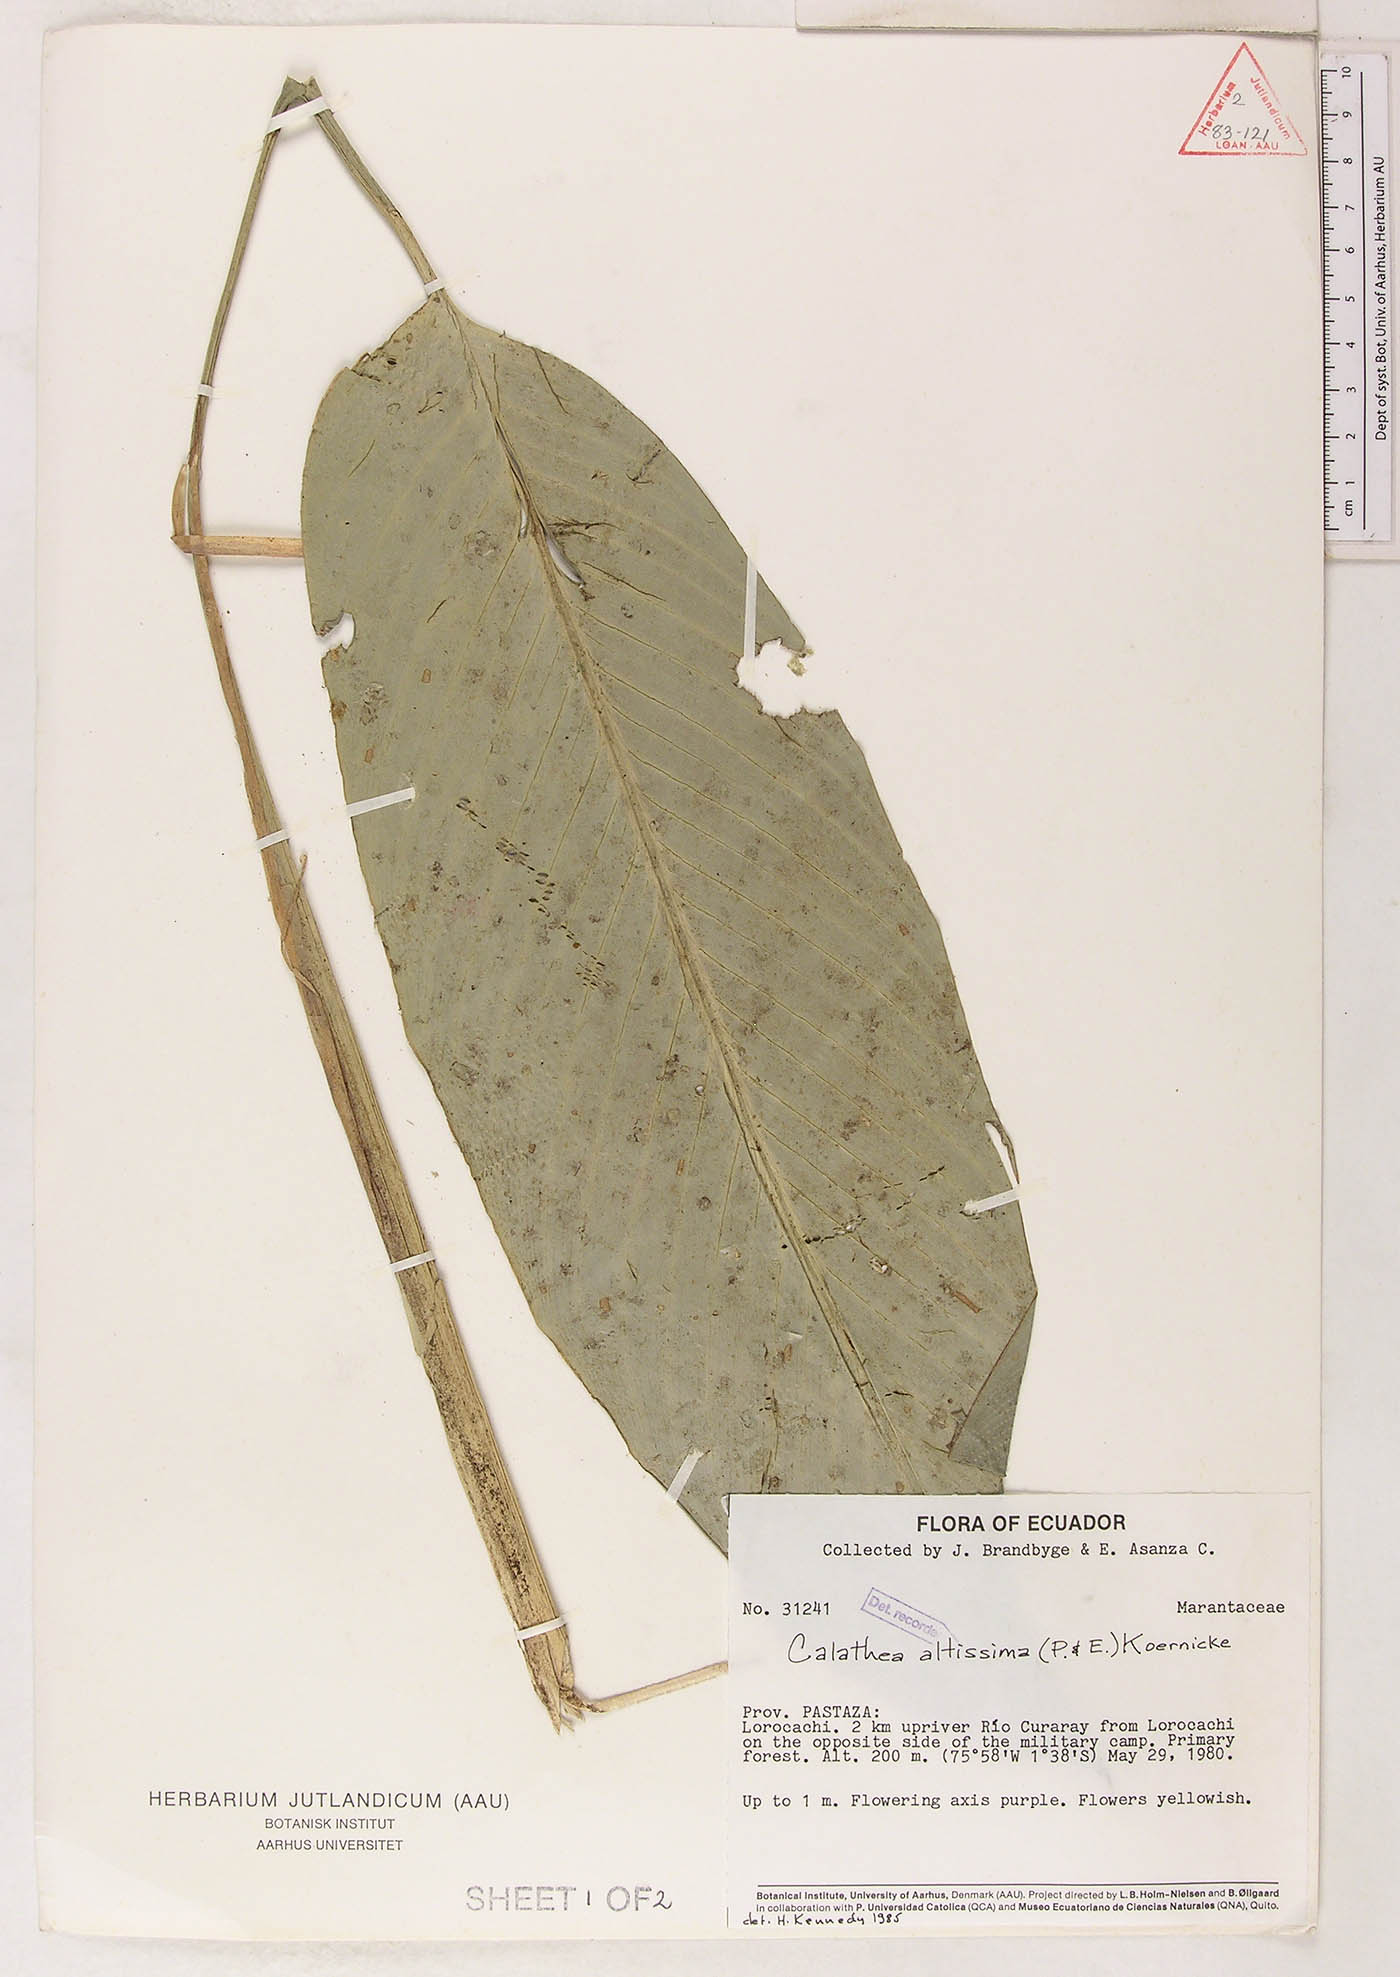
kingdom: Plantae
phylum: Tracheophyta
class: Liliopsida
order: Zingiberales
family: Marantaceae
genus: Goeppertia
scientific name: Goeppertia altissima
